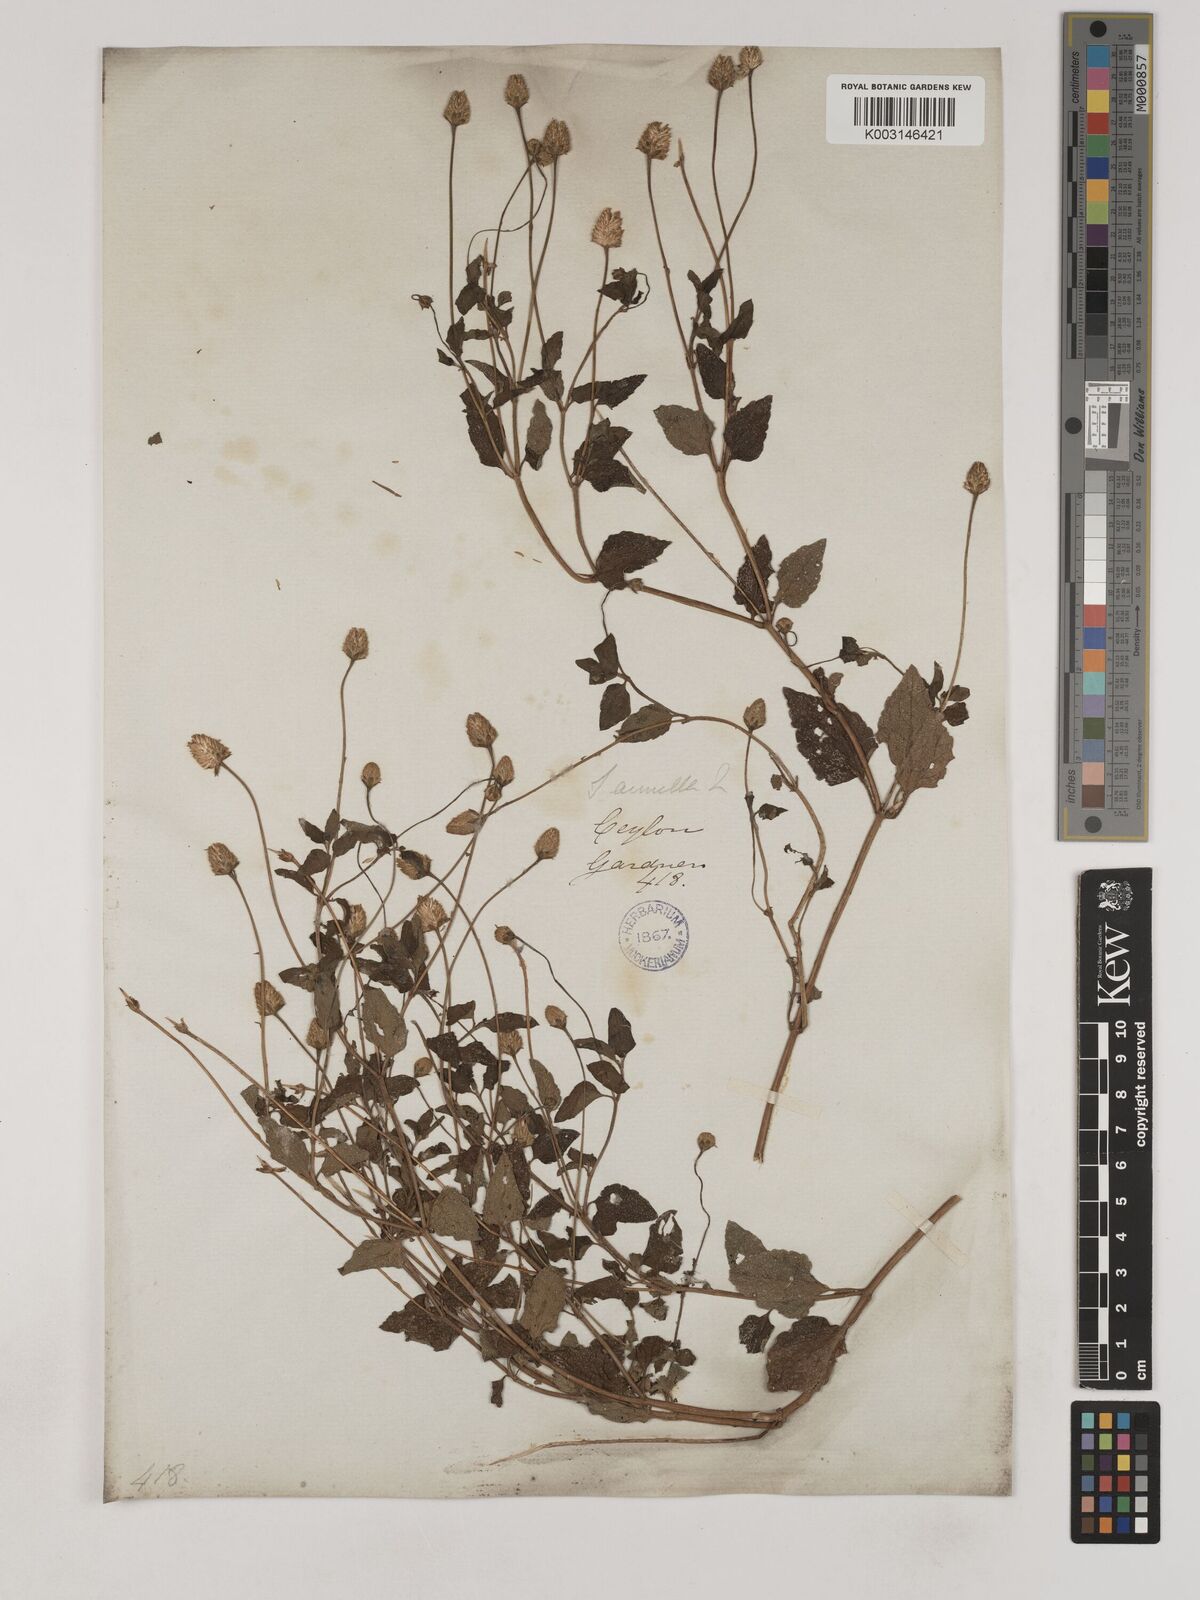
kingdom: Plantae
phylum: Tracheophyta
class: Magnoliopsida
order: Asterales
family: Asteraceae
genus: Acmella
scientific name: Acmella calva
